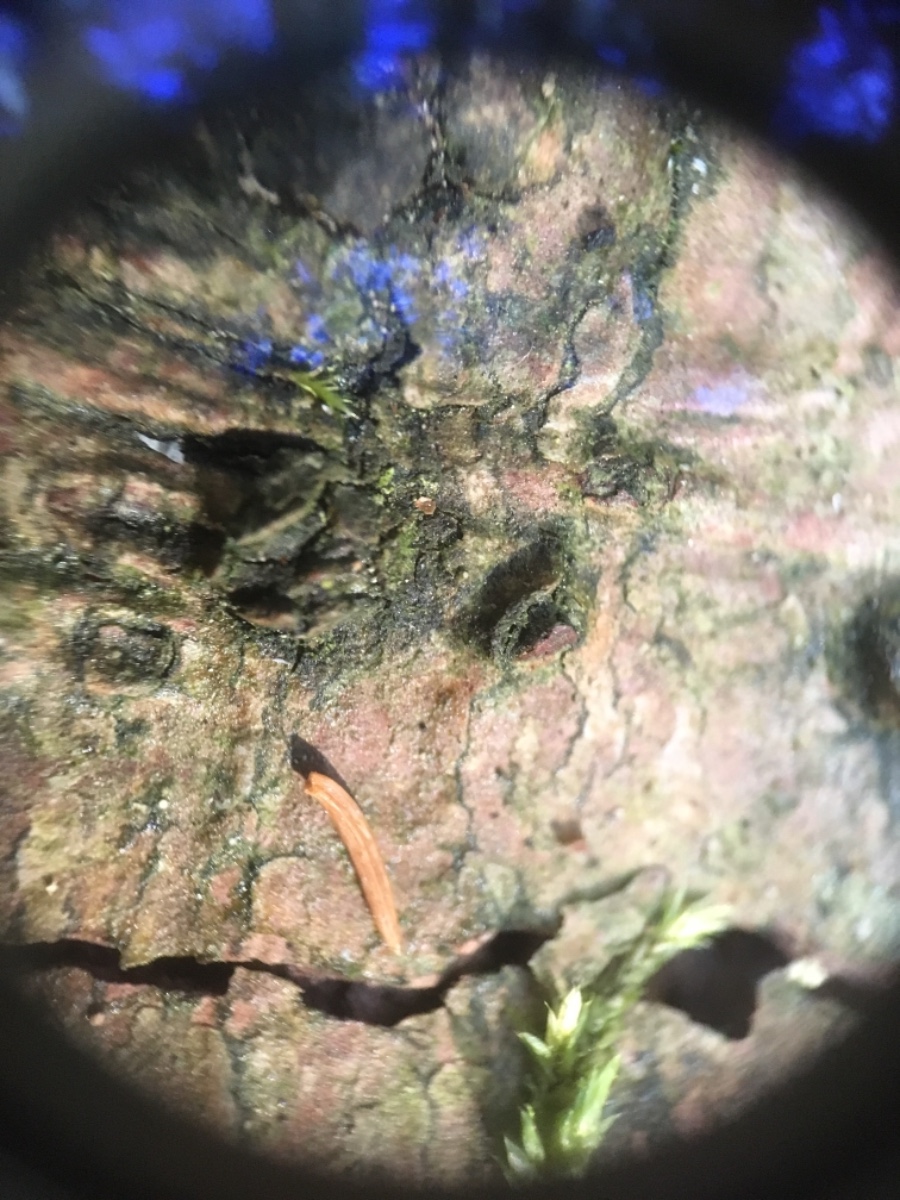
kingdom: Fungi
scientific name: Fungi
